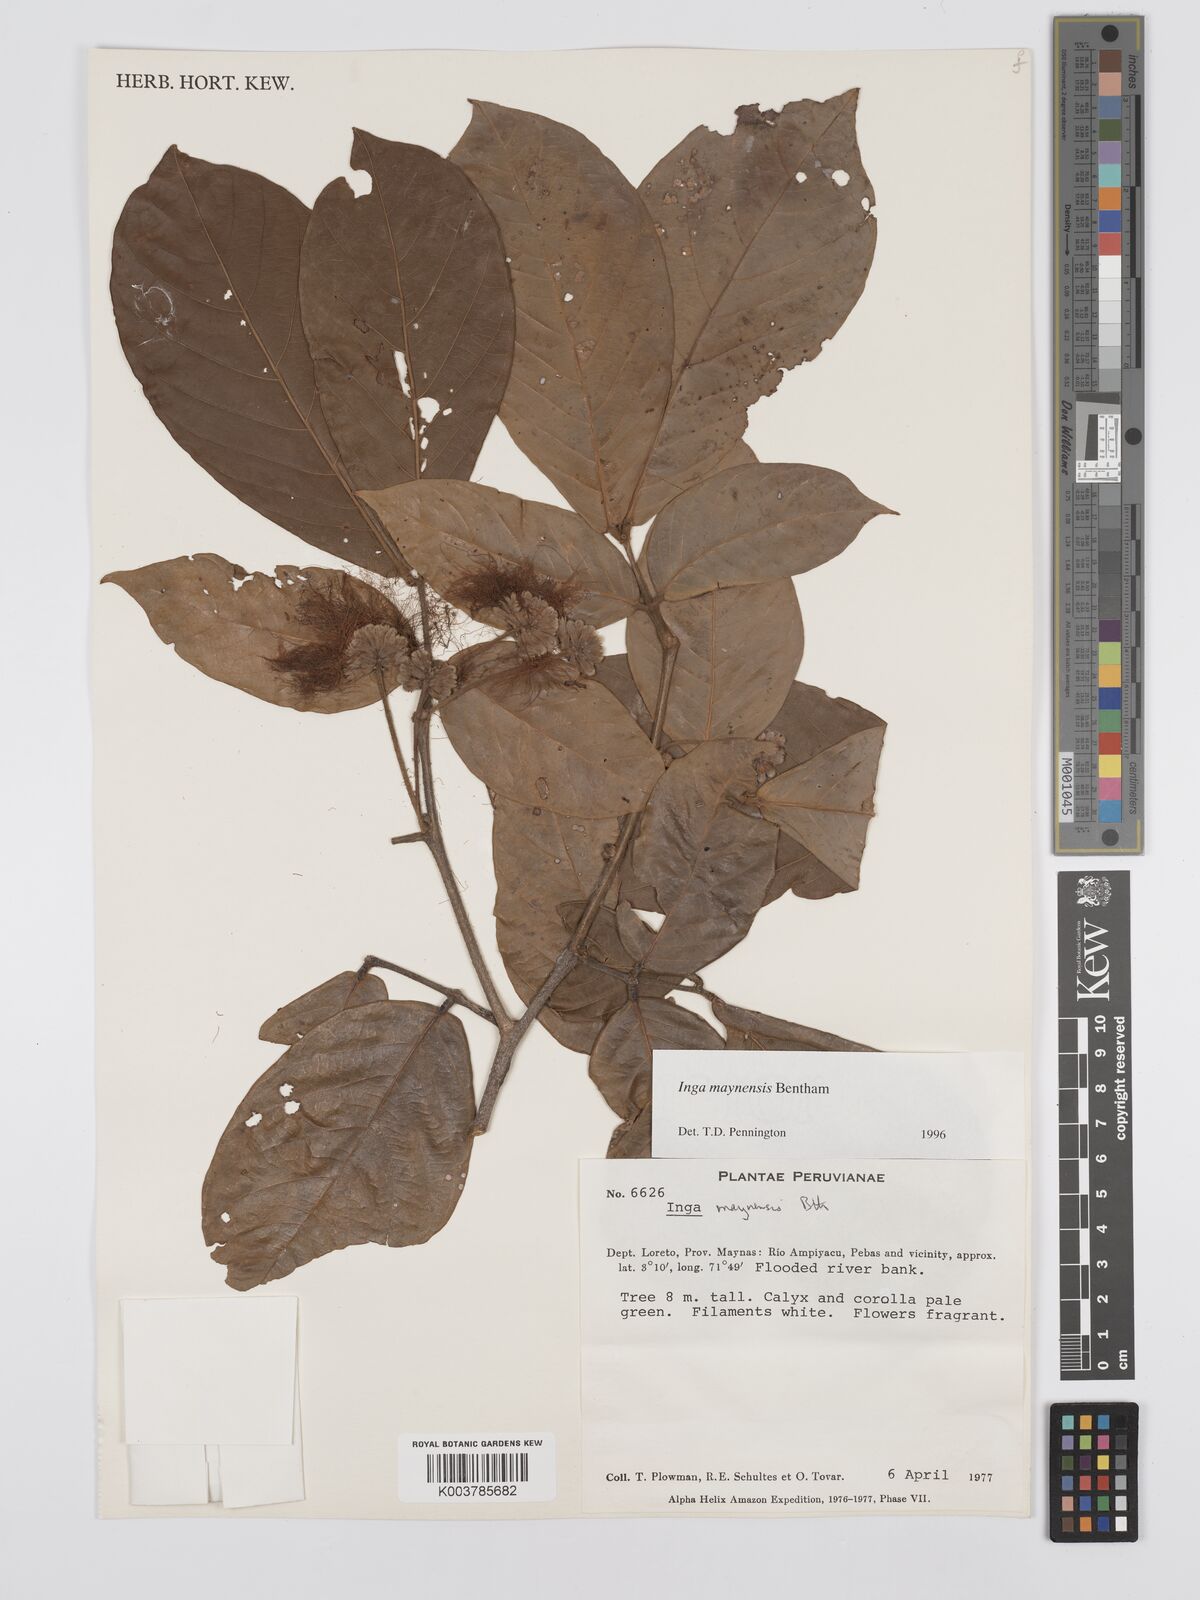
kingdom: Plantae
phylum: Tracheophyta
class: Magnoliopsida
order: Fabales
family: Fabaceae
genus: Inga
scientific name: Inga maynensis
